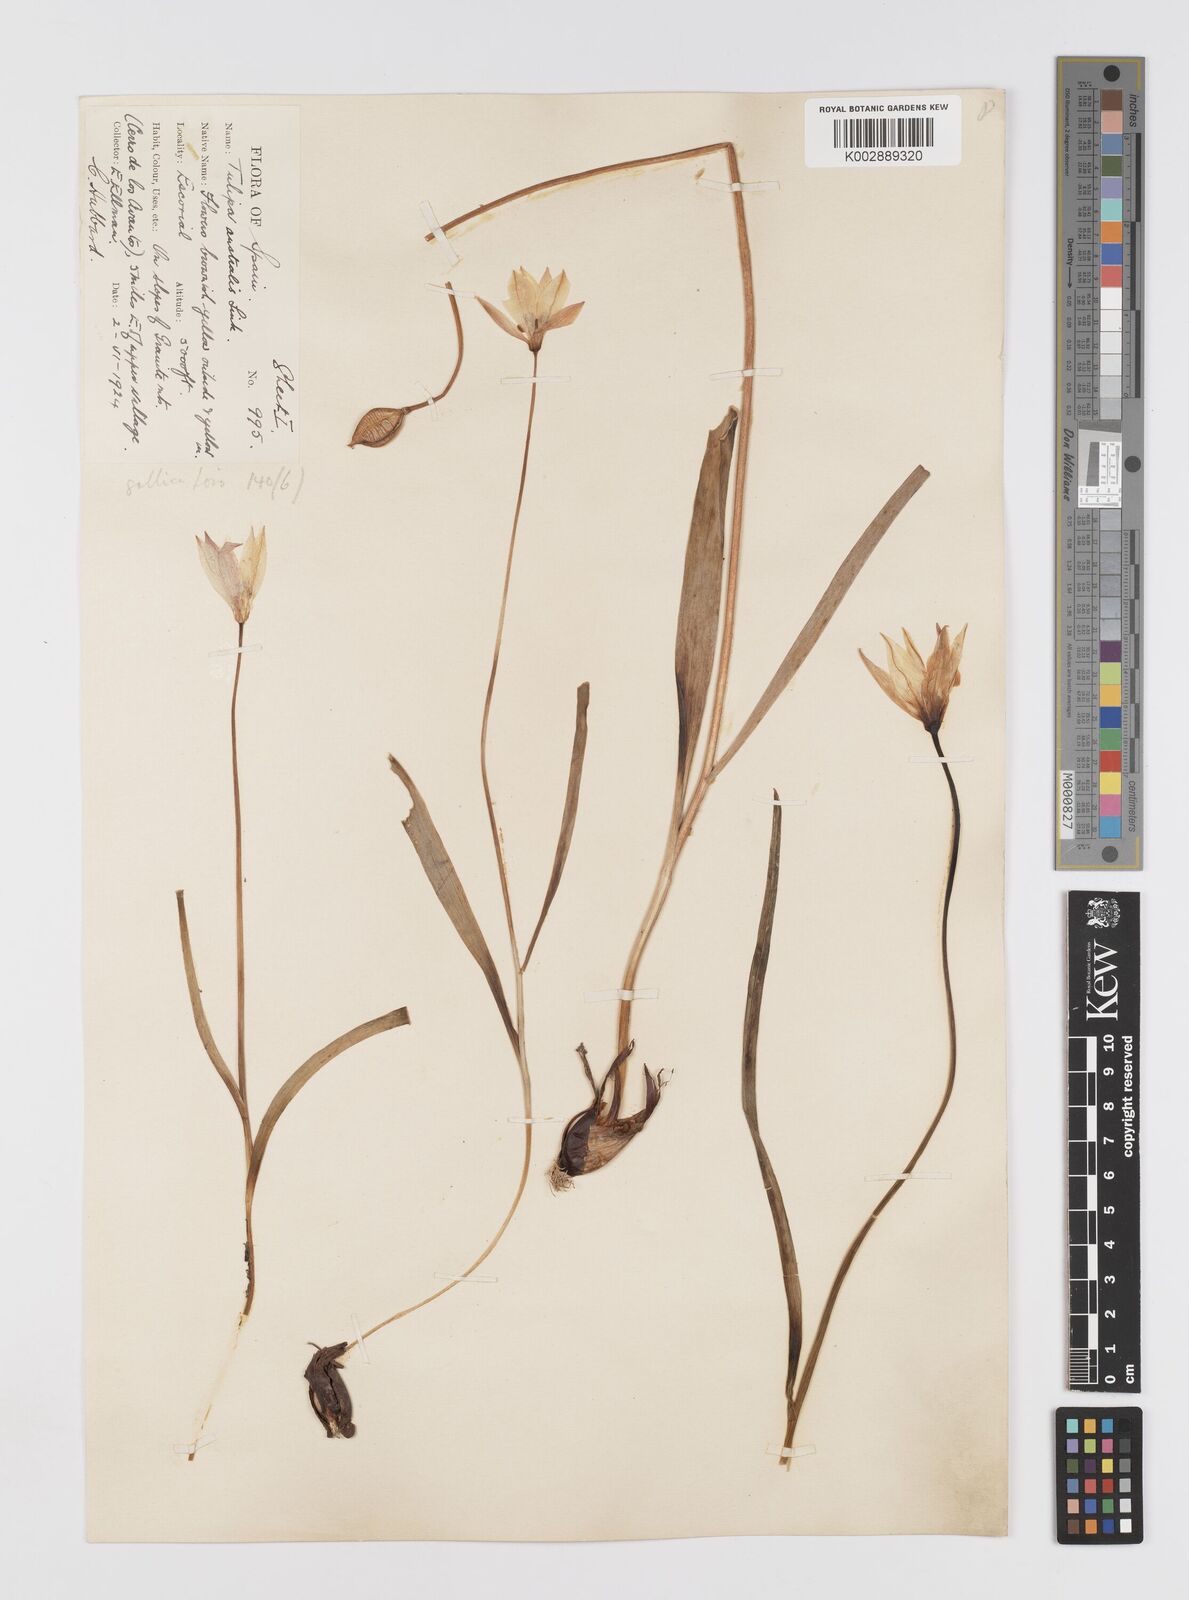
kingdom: Plantae
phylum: Tracheophyta
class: Liliopsida
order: Liliales
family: Liliaceae
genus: Tulipa
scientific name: Tulipa sylvestris
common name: Wild tulip
